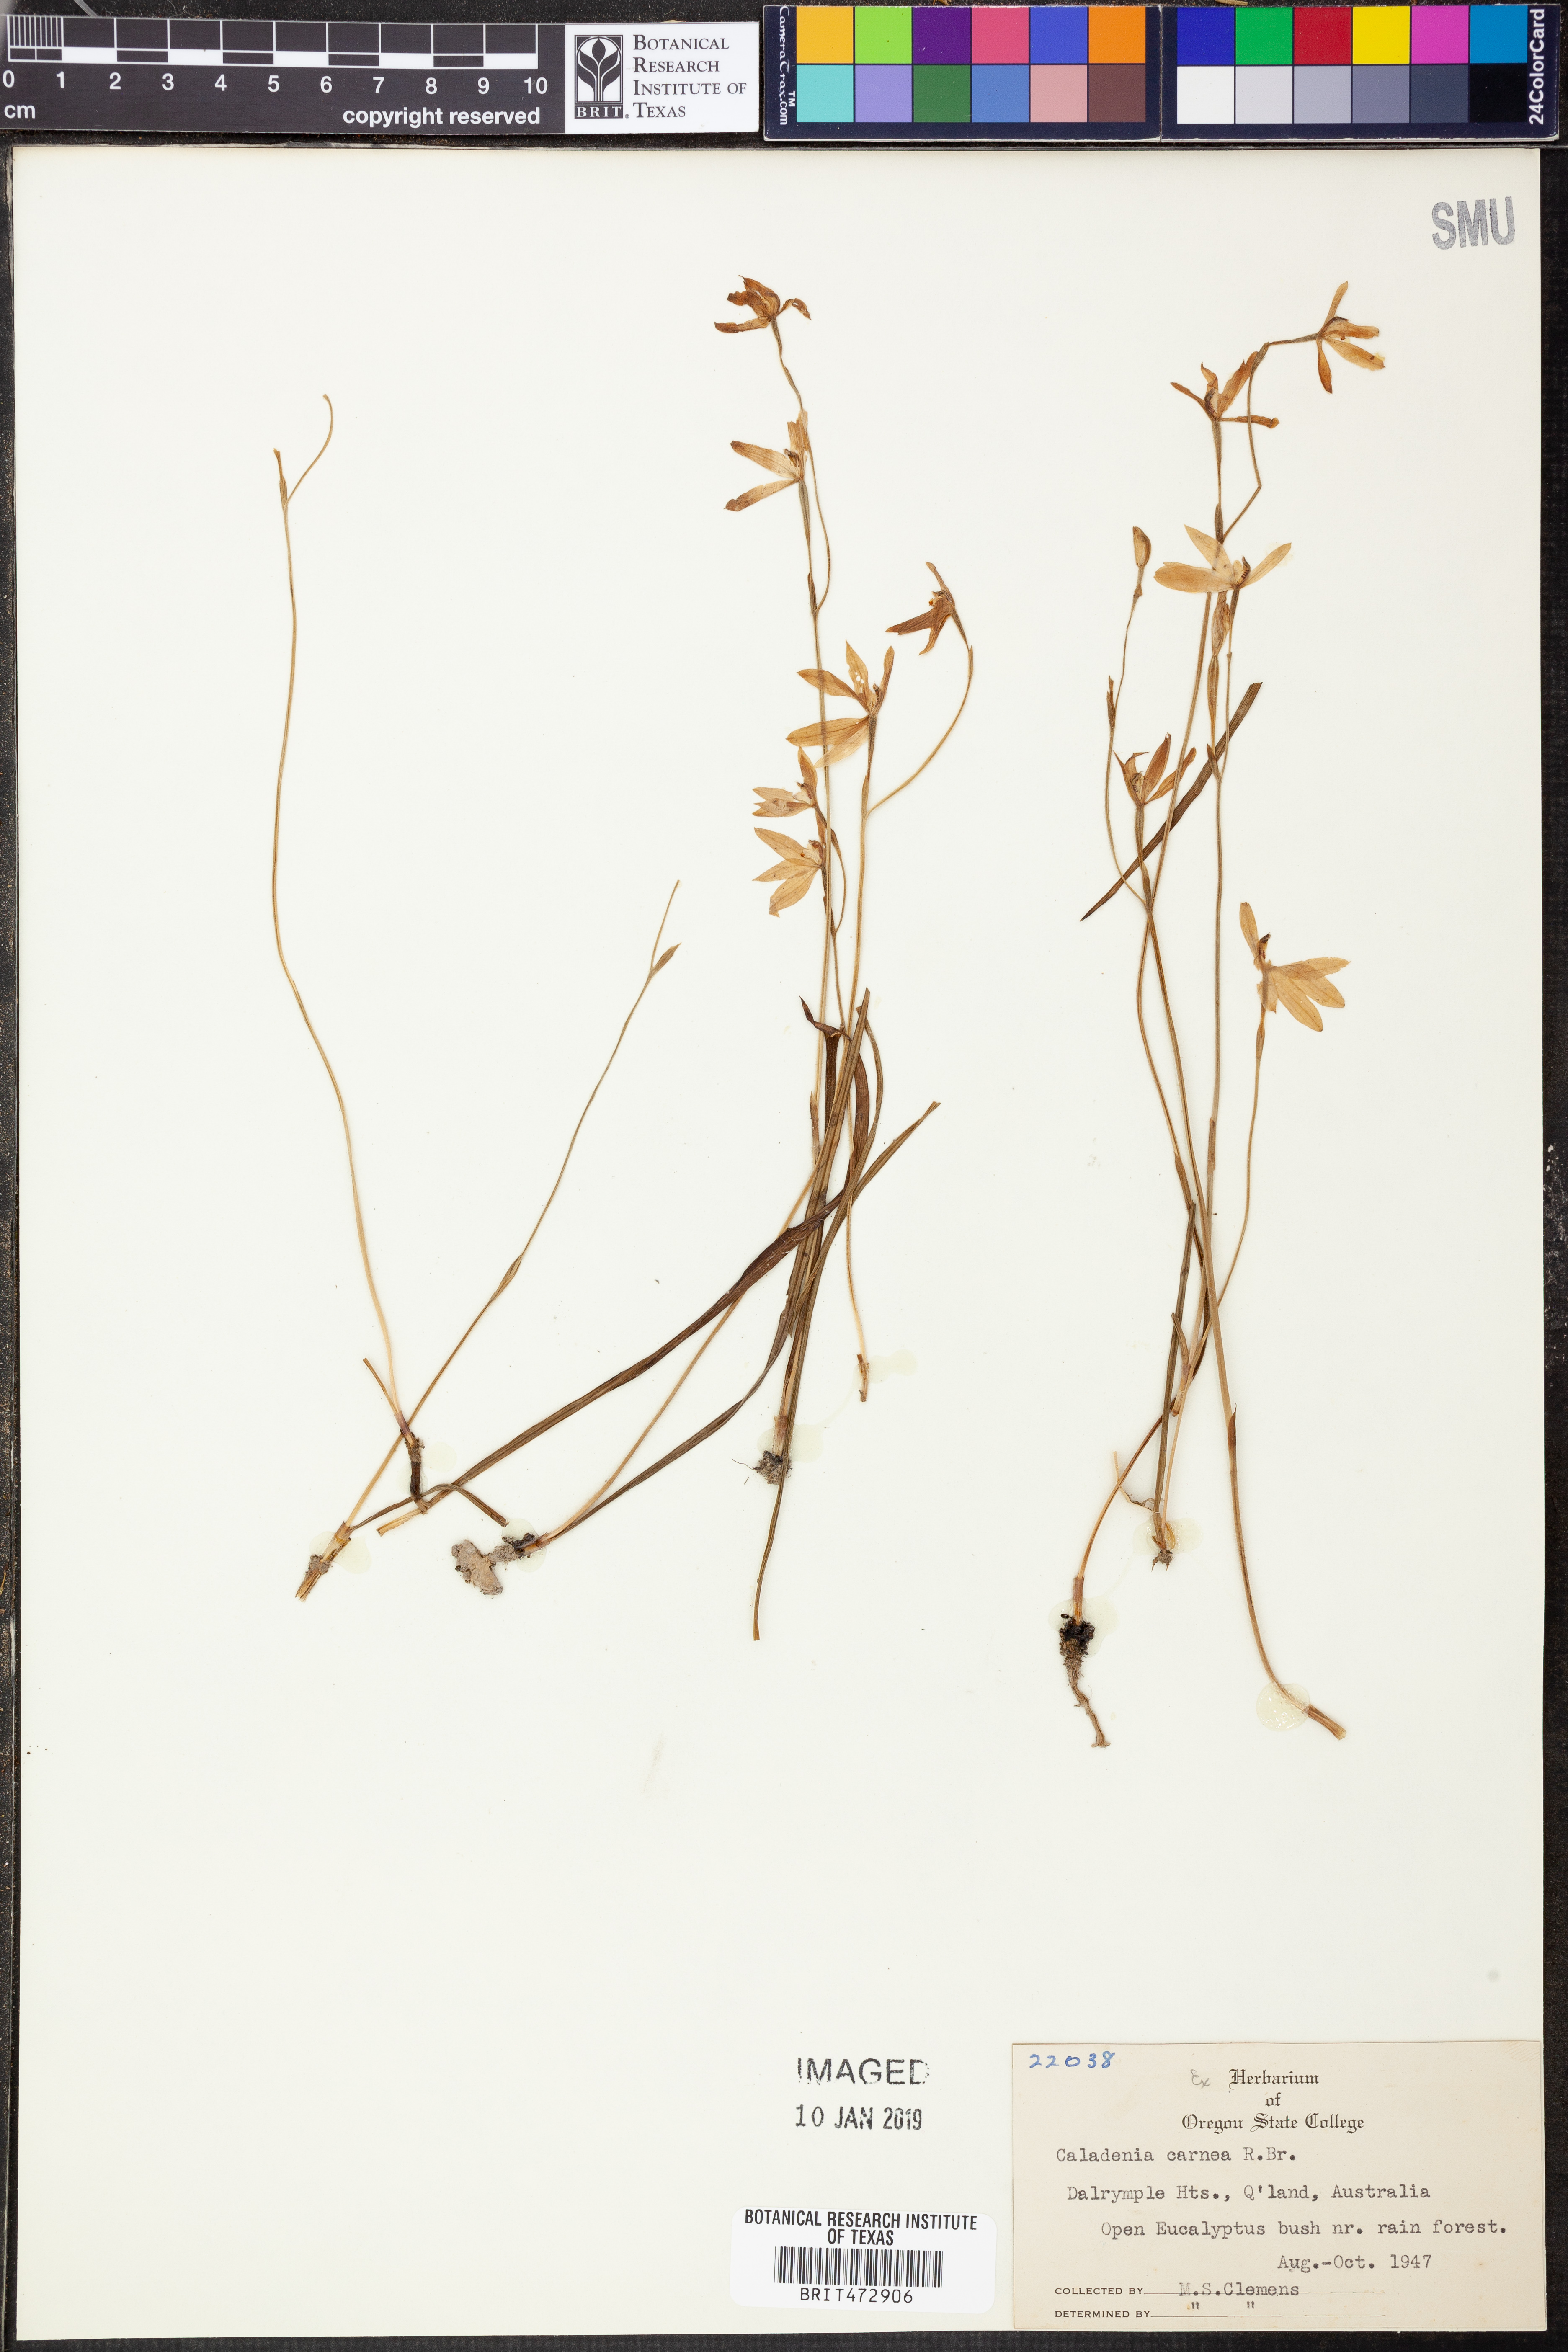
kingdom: Plantae
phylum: Tracheophyta
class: Liliopsida
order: Asparagales
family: Orchidaceae
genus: Caladenia
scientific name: Caladenia carnea
